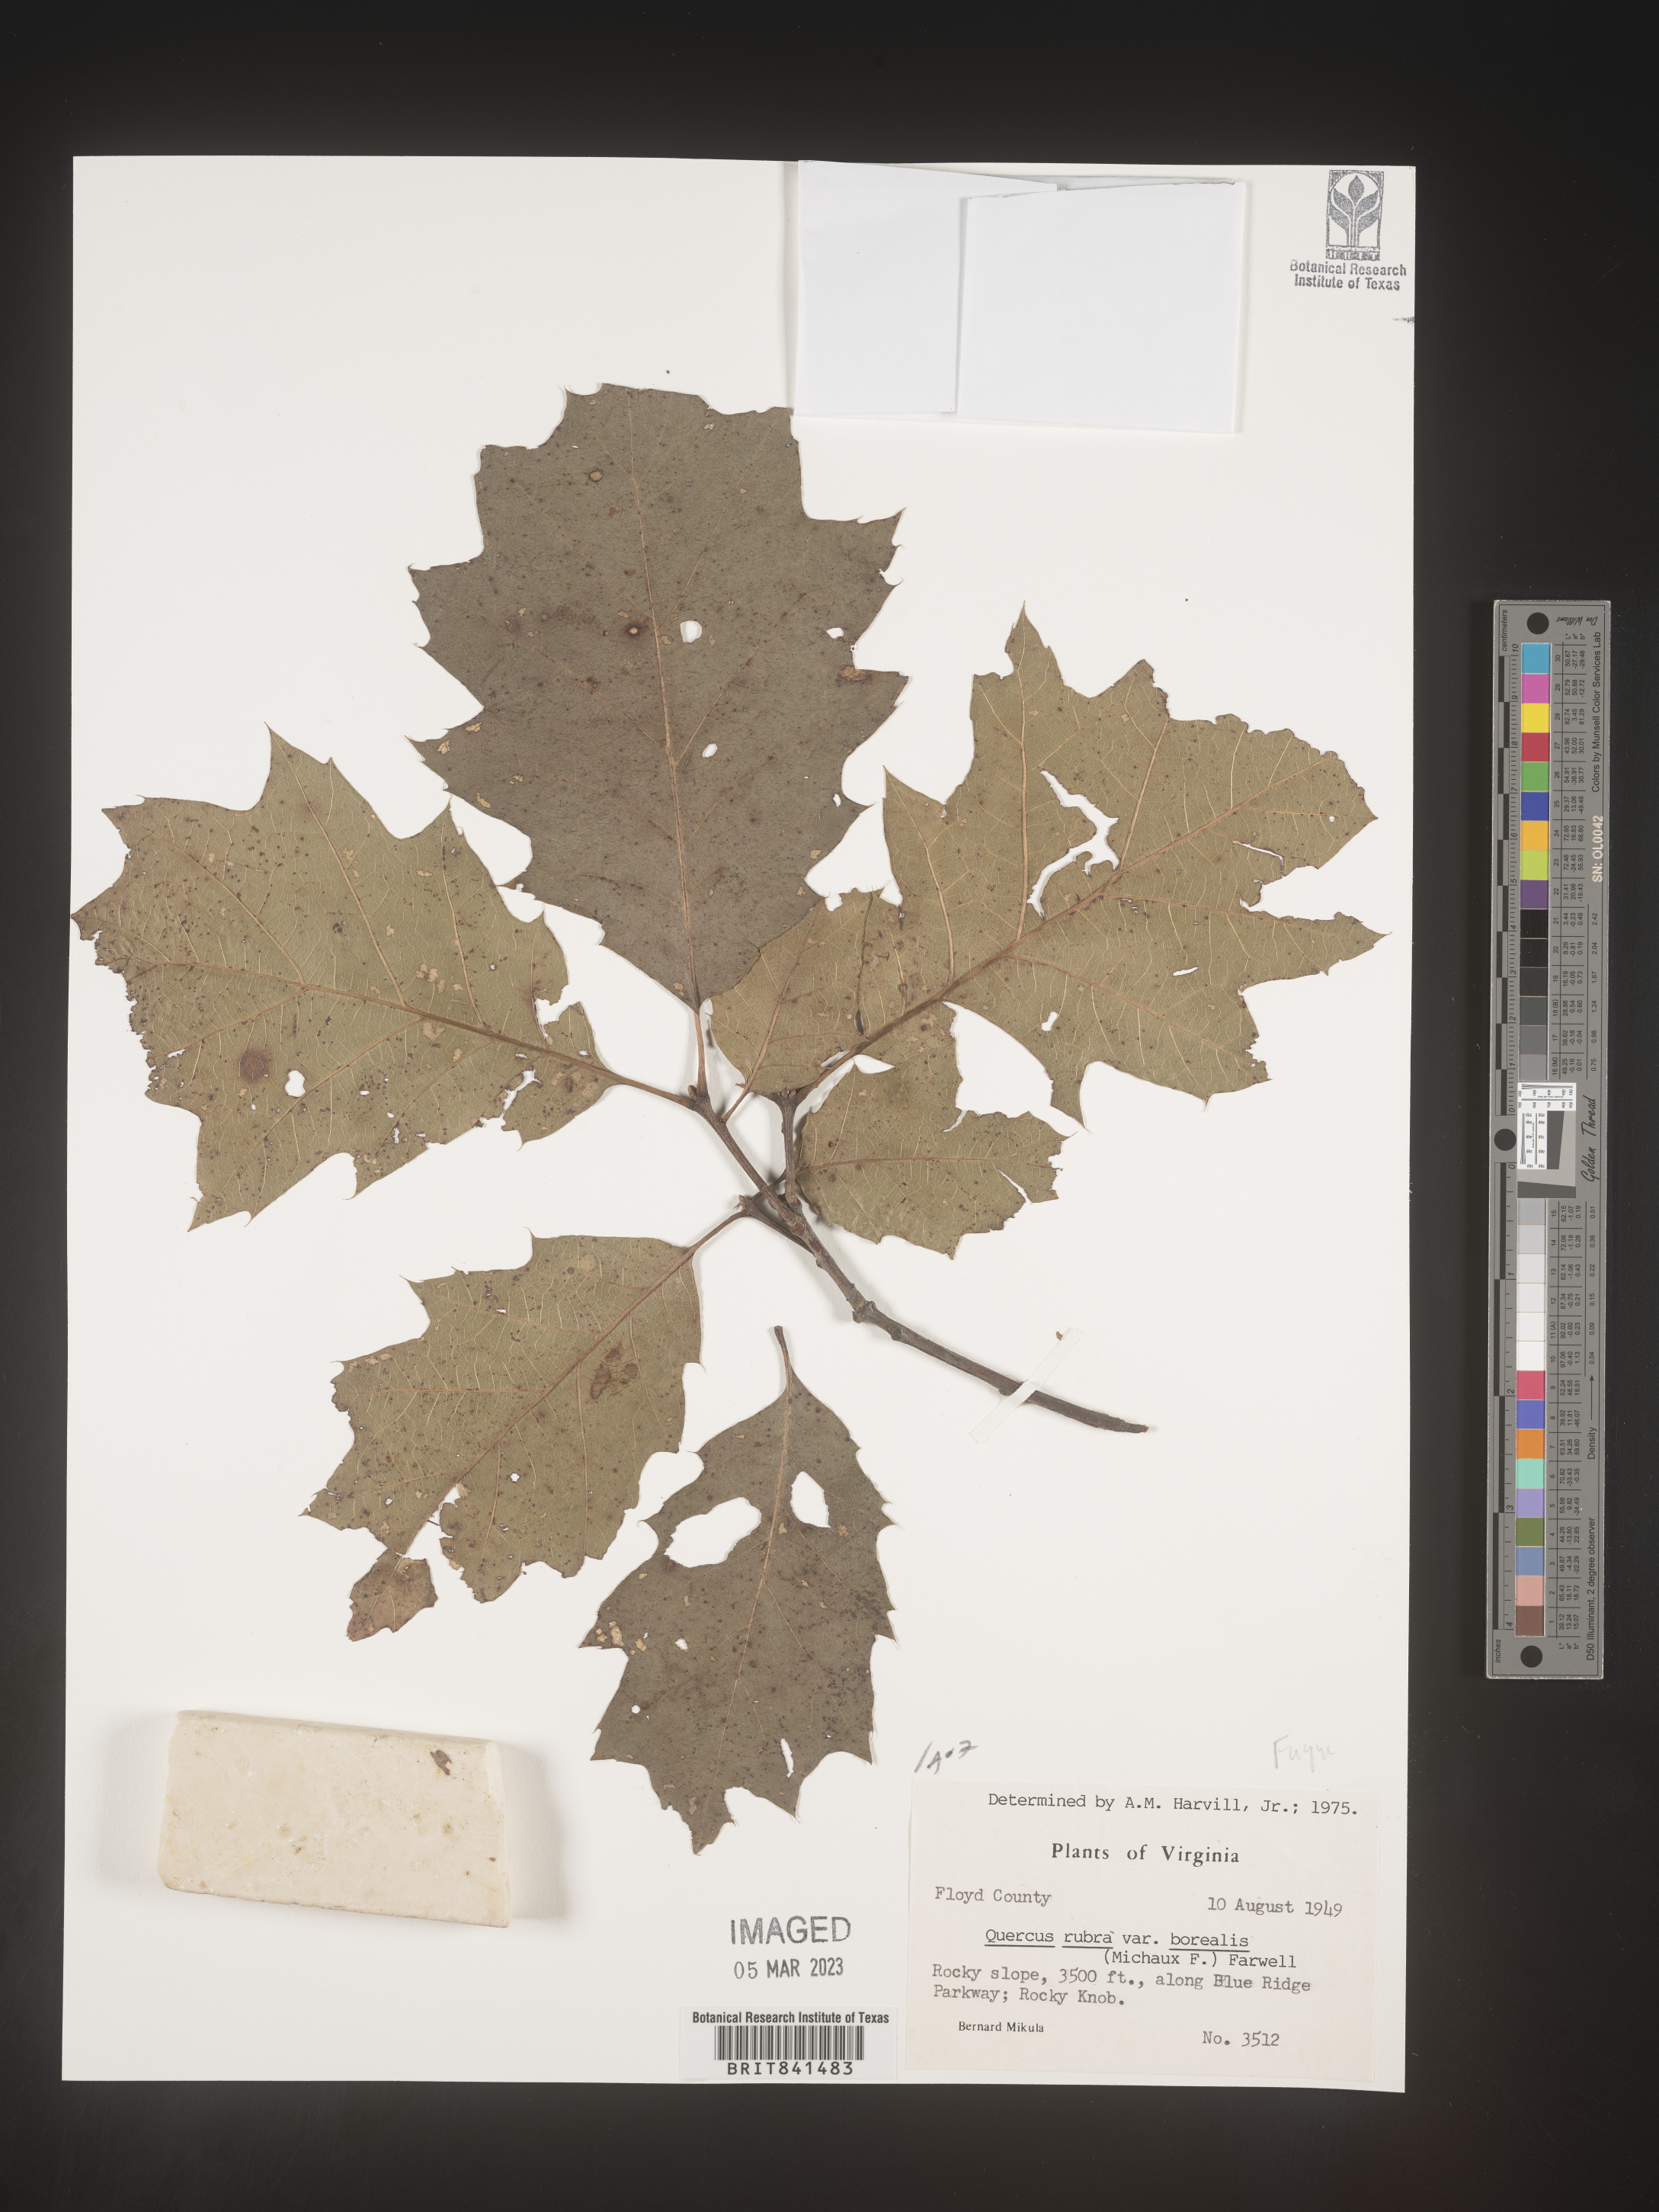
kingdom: Plantae
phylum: Tracheophyta
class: Magnoliopsida
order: Fagales
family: Fagaceae
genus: Quercus
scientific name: Quercus rubra
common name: Red oak
